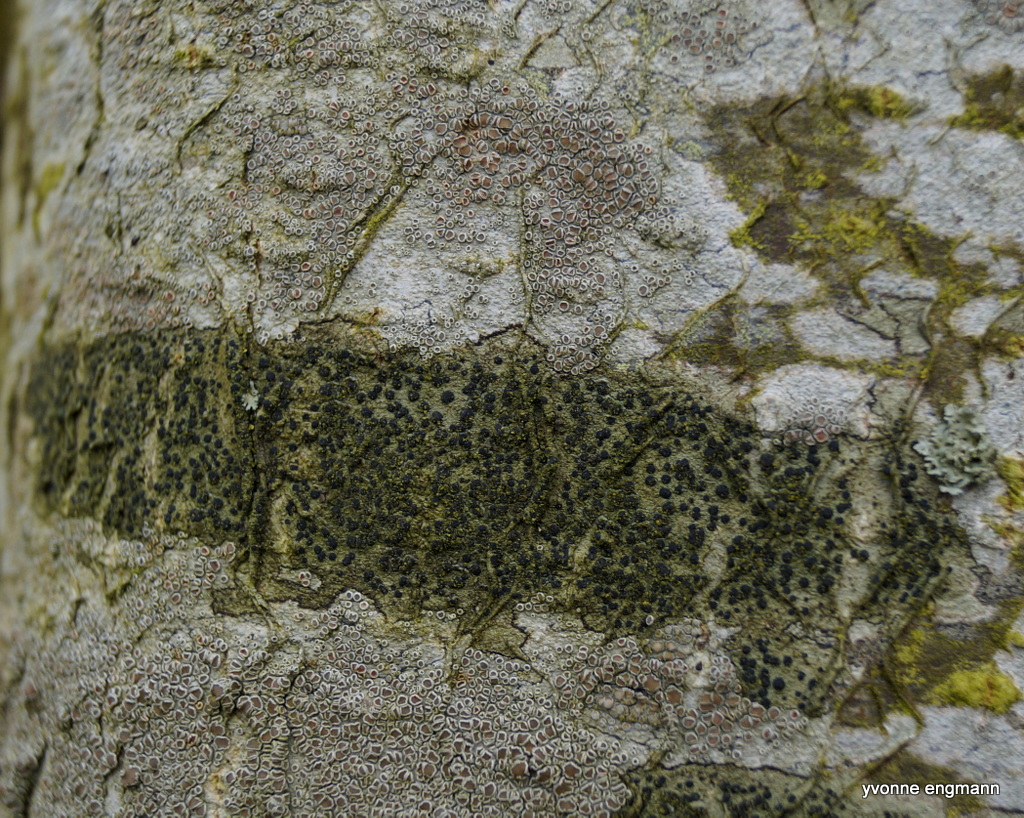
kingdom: Fungi
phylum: Ascomycota
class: Lecanoromycetes
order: Lecanorales
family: Lecanoraceae
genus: Lecidella
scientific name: Lecidella elaeochroma
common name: grågrøn skivelav
